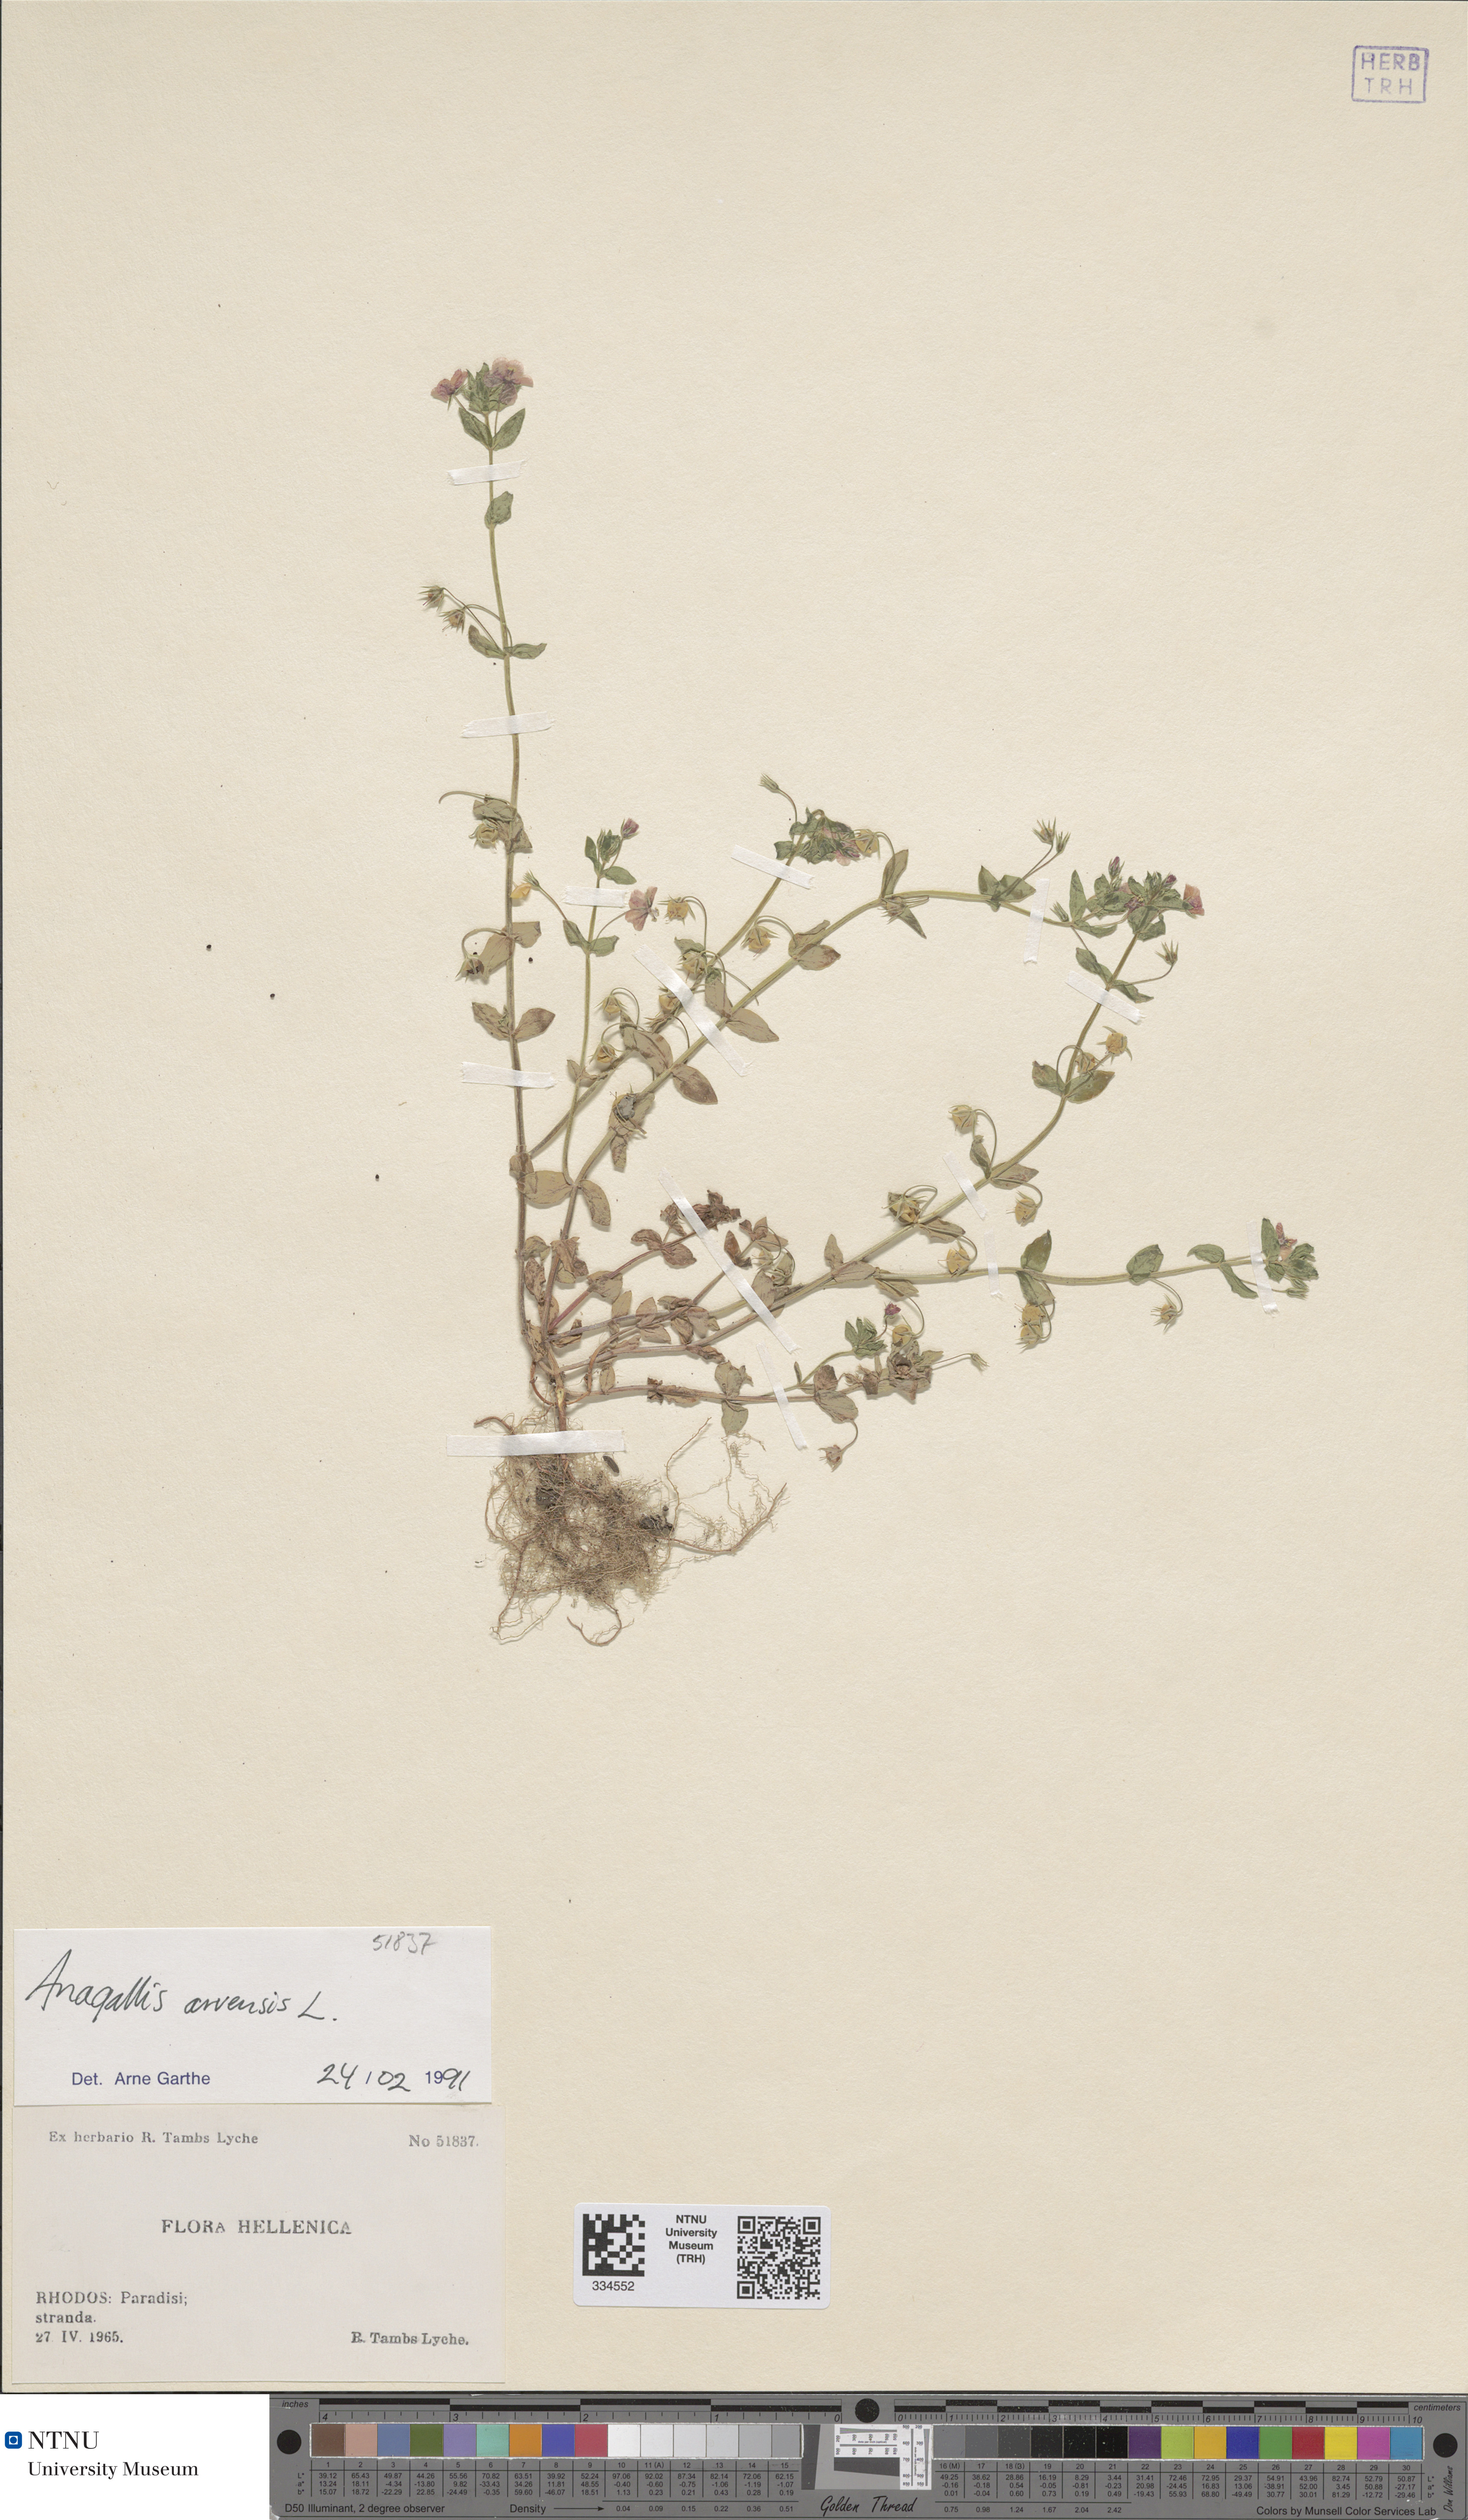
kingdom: Plantae
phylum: Tracheophyta
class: Magnoliopsida
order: Ericales
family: Primulaceae
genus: Lysimachia
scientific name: Lysimachia arvensis
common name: Scarlet pimpernel
